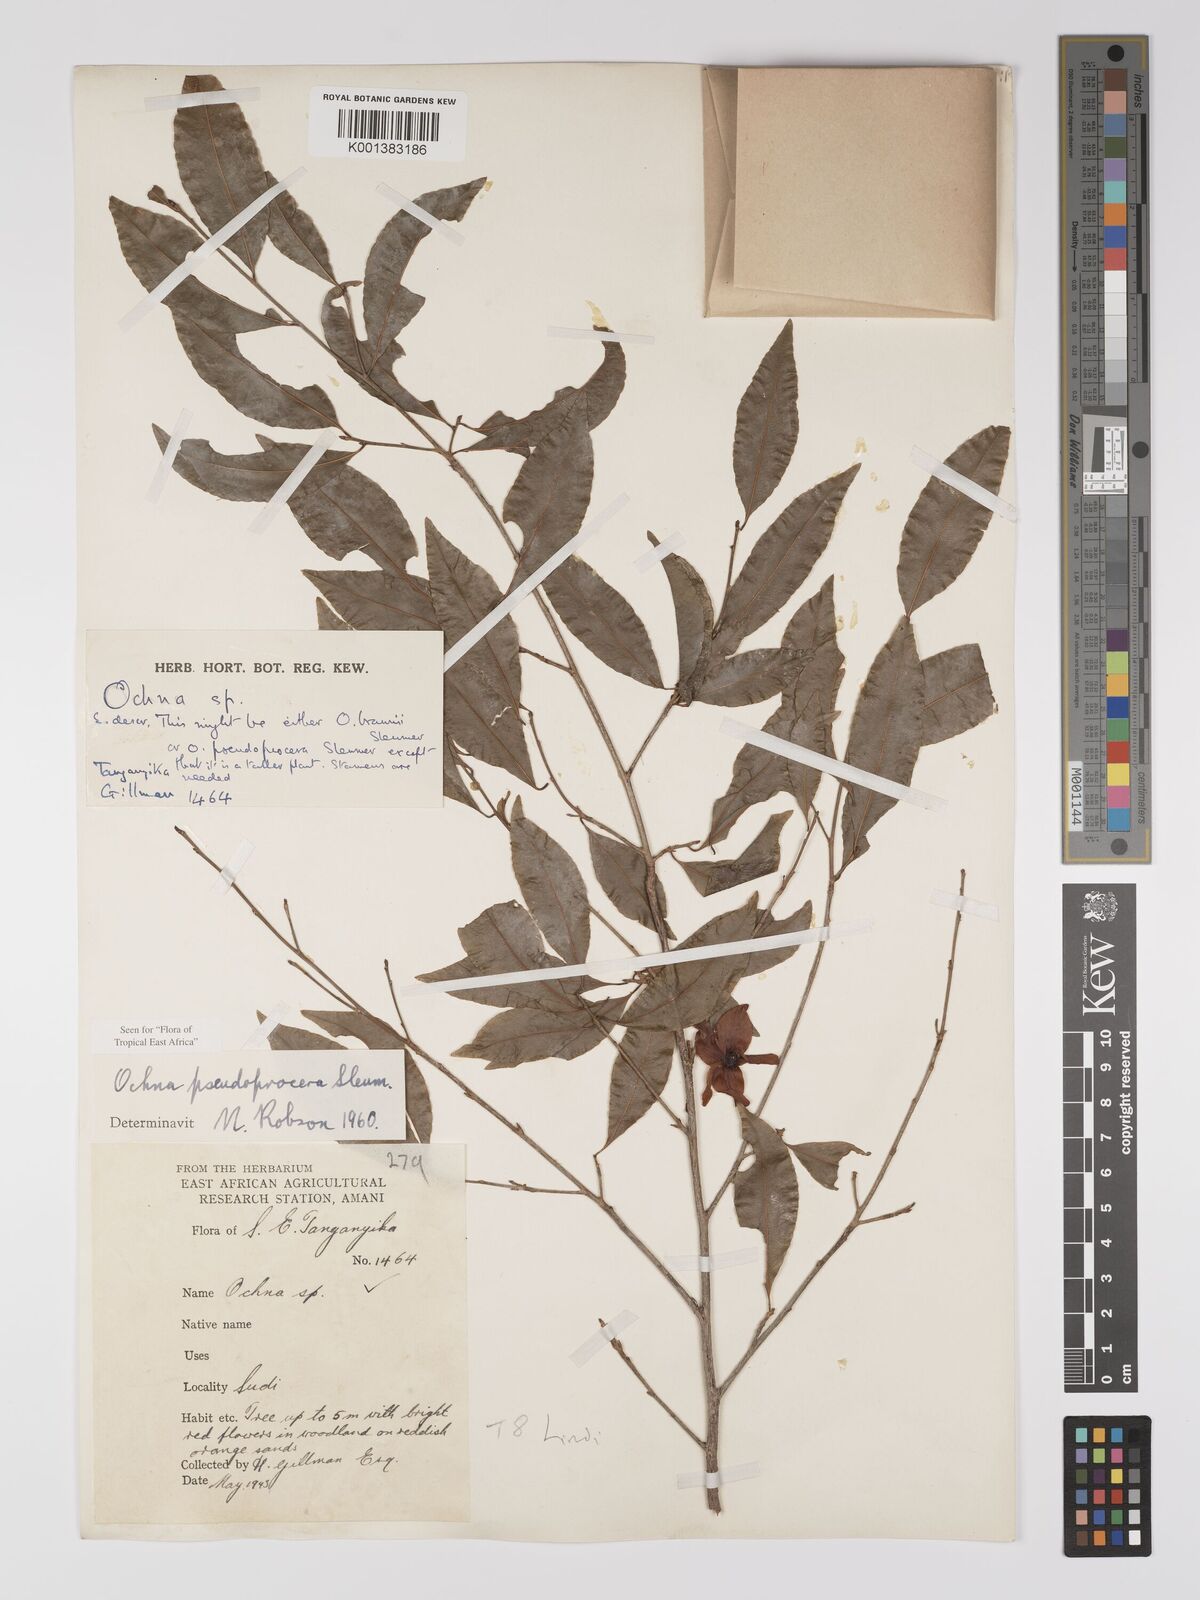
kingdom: Plantae
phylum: Tracheophyta
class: Magnoliopsida
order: Malpighiales
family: Ochnaceae
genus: Ochna
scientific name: Ochna pseudoprocera
